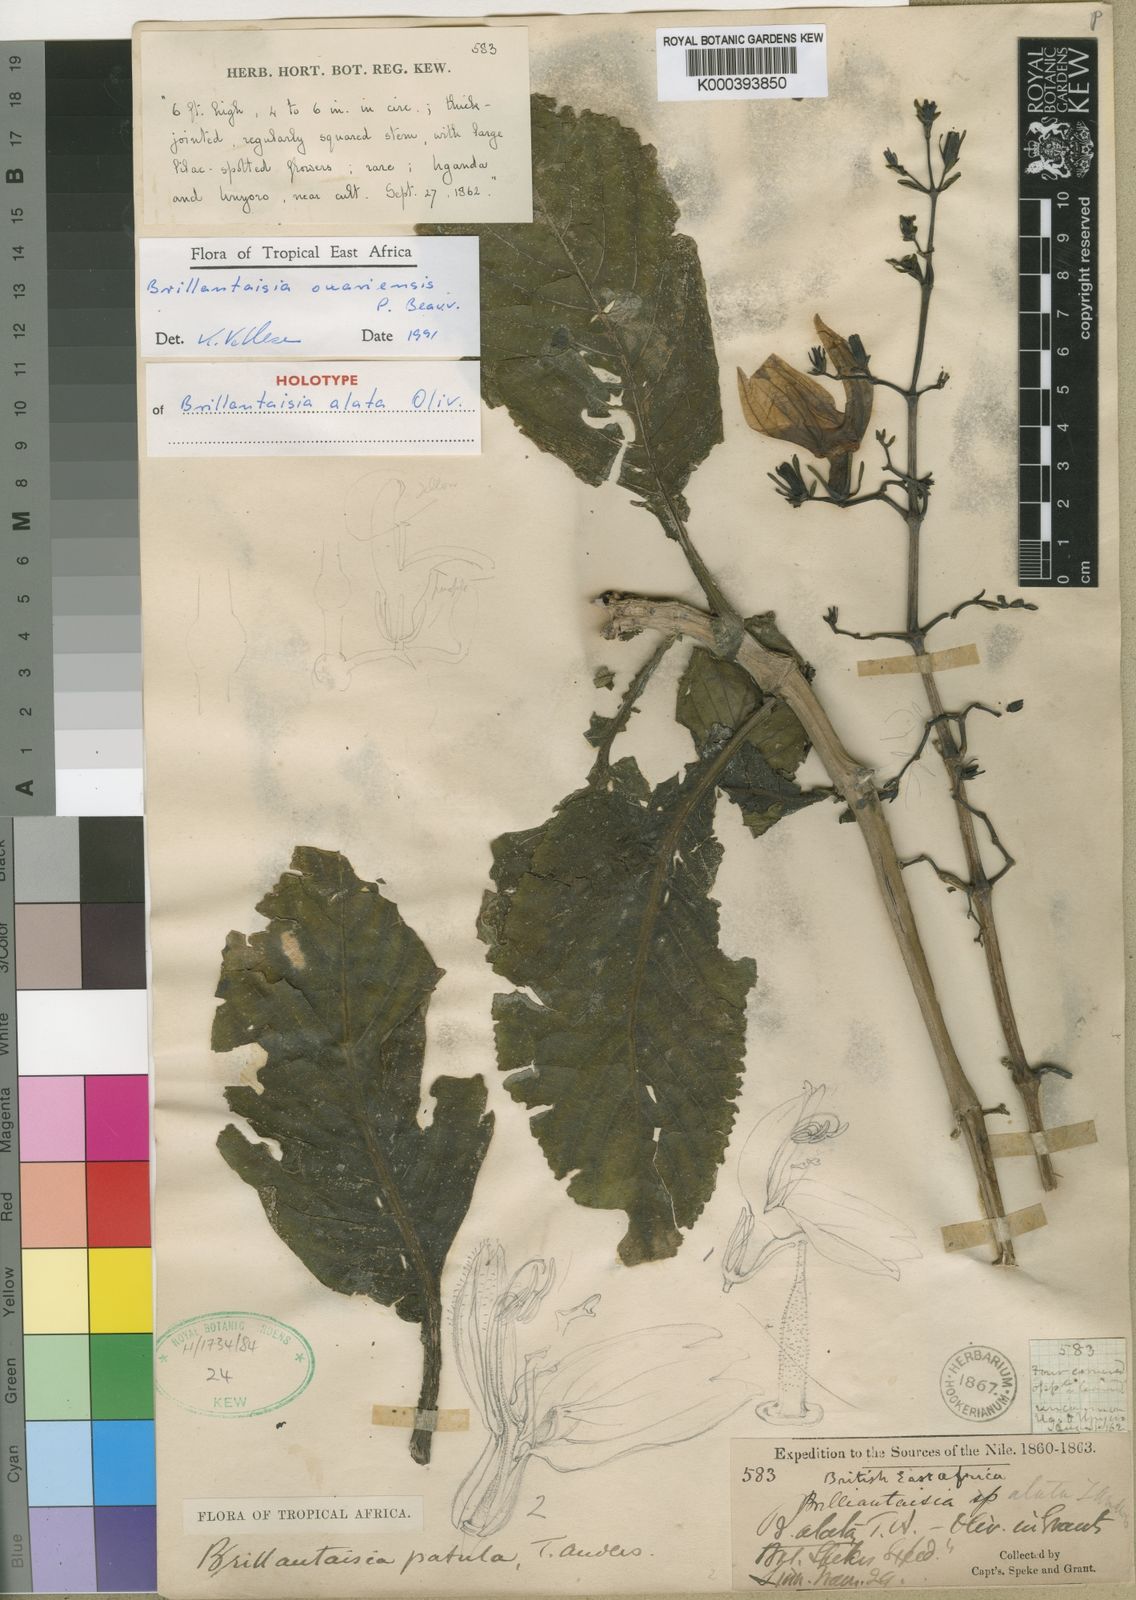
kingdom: Plantae
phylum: Tracheophyta
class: Magnoliopsida
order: Lamiales
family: Acanthaceae
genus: Brillantaisia
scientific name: Brillantaisia owariensis
